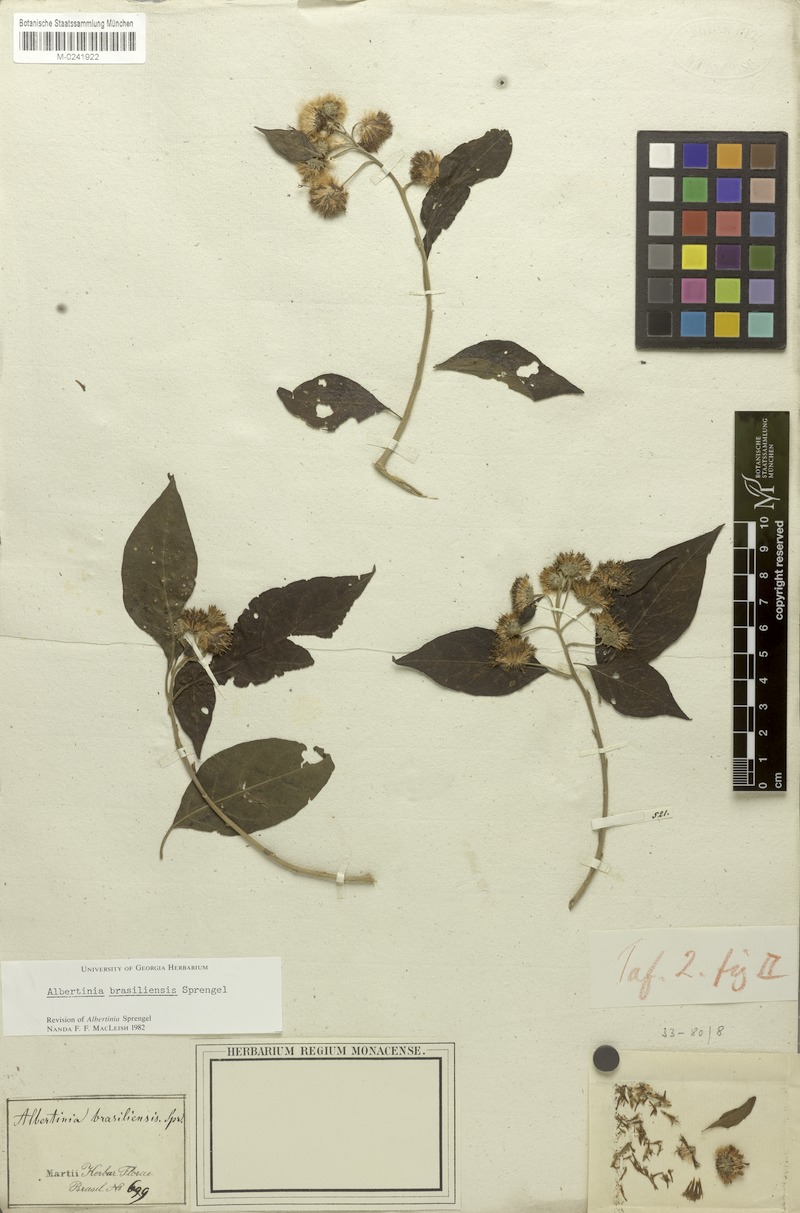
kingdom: Plantae
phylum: Tracheophyta
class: Magnoliopsida
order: Asterales
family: Asteraceae
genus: Albertinia
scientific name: Albertinia brasiliensis
